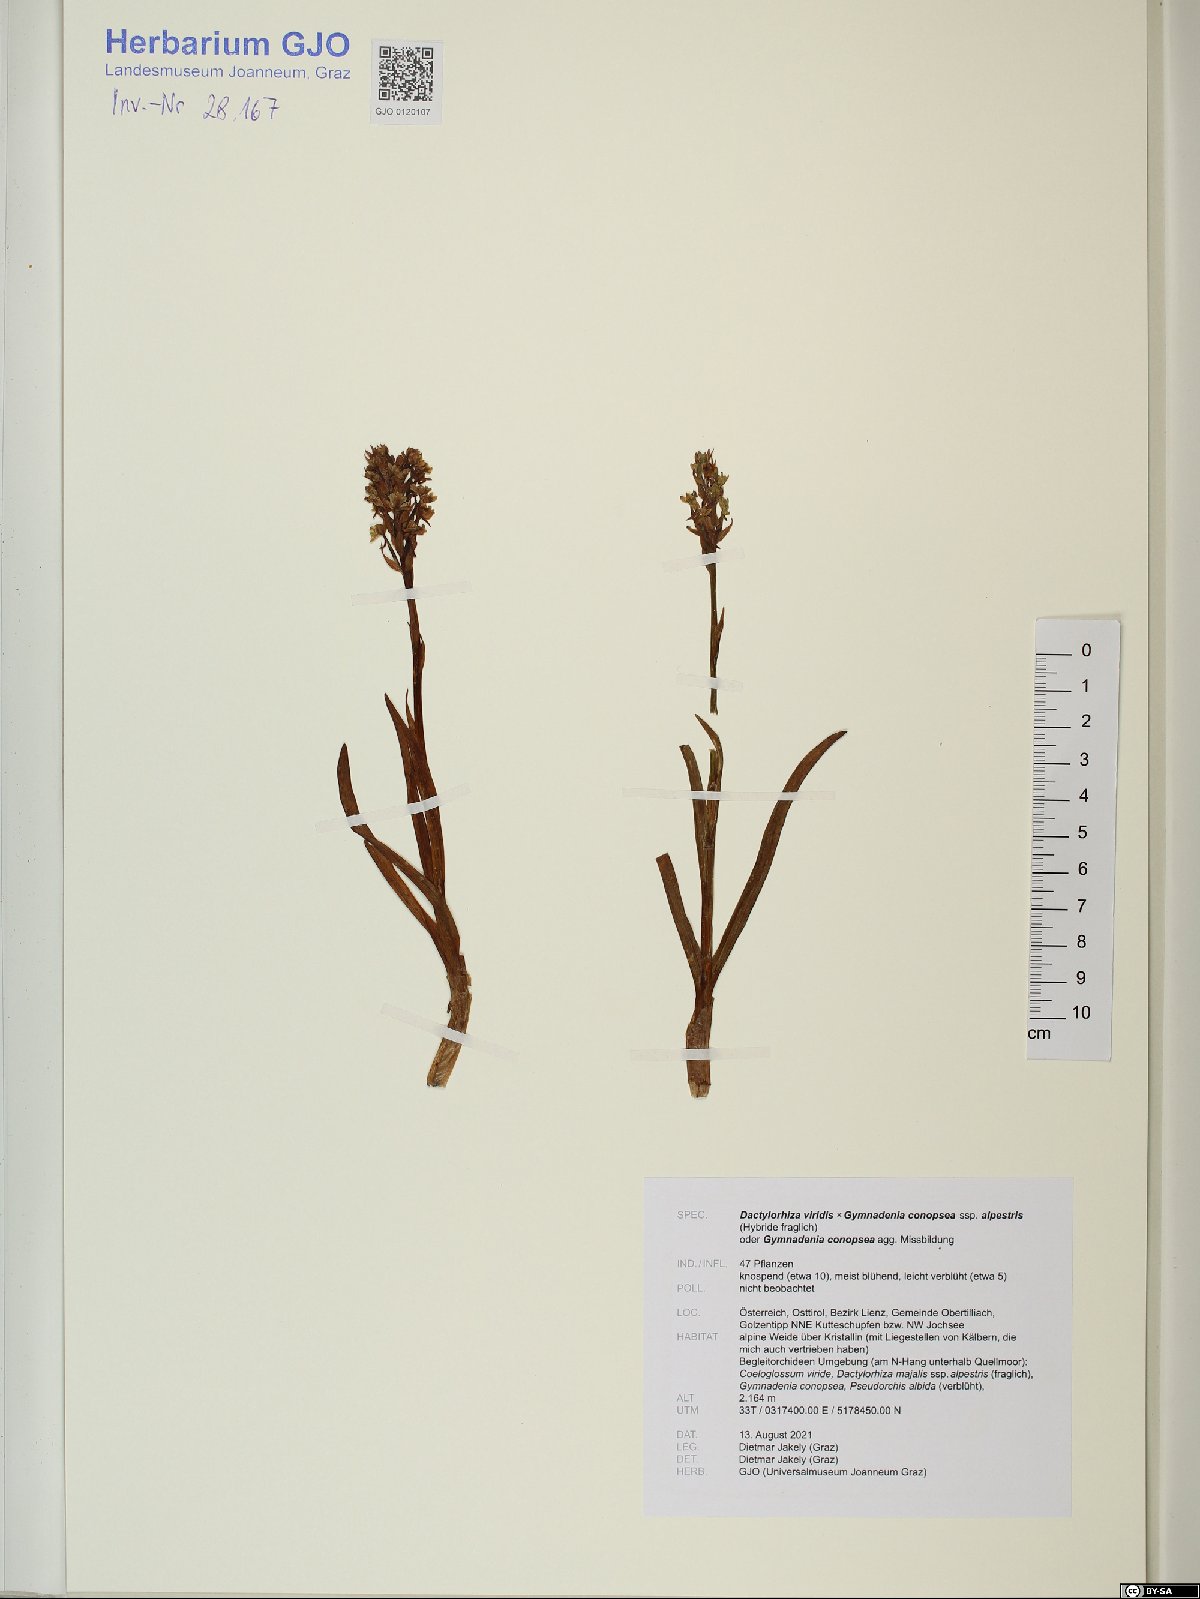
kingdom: Plantae
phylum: Tracheophyta
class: Liliopsida
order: Asparagales
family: Orchidaceae
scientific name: Orchidaceae
